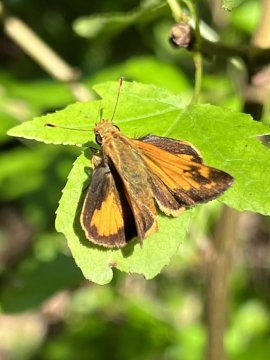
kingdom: Animalia
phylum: Arthropoda
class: Insecta
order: Lepidoptera
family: Hesperiidae
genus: Lon
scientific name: Lon zabulon
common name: Zabulon Skipper
